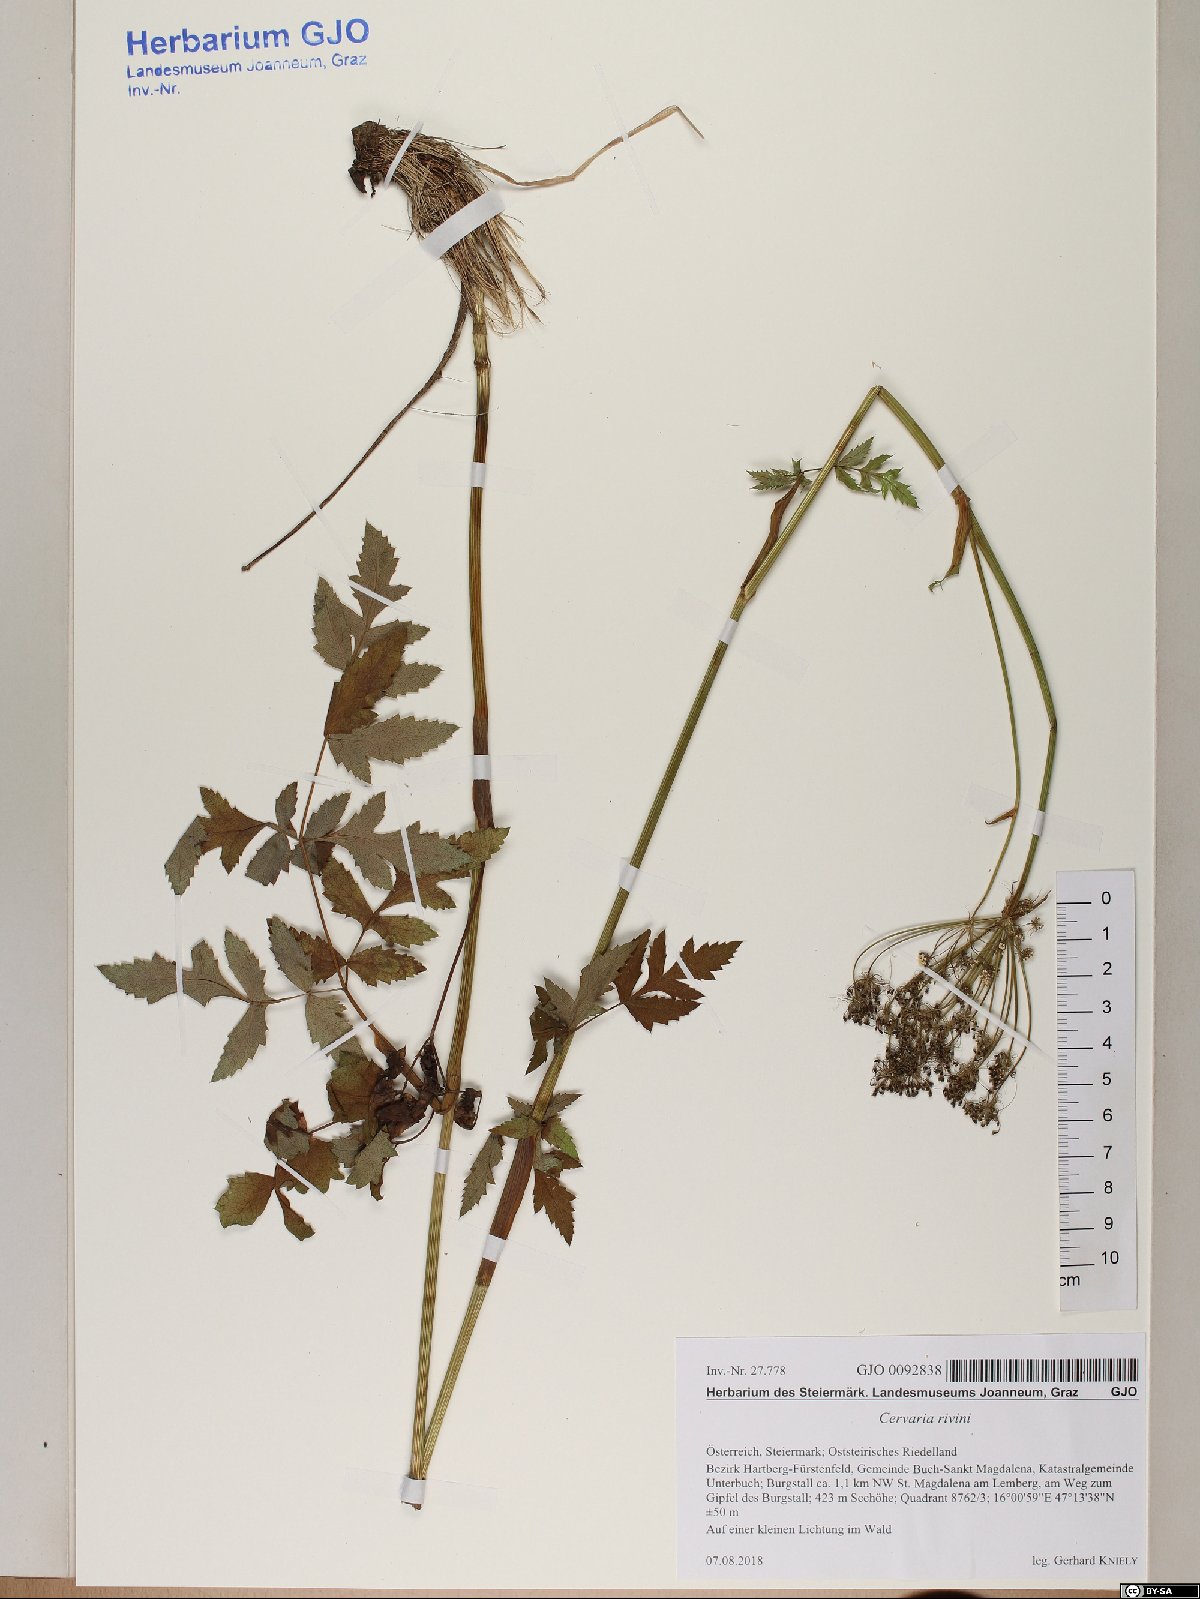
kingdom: Plantae
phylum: Tracheophyta
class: Magnoliopsida
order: Apiales
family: Apiaceae
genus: Cervaria
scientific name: Cervaria rivini
